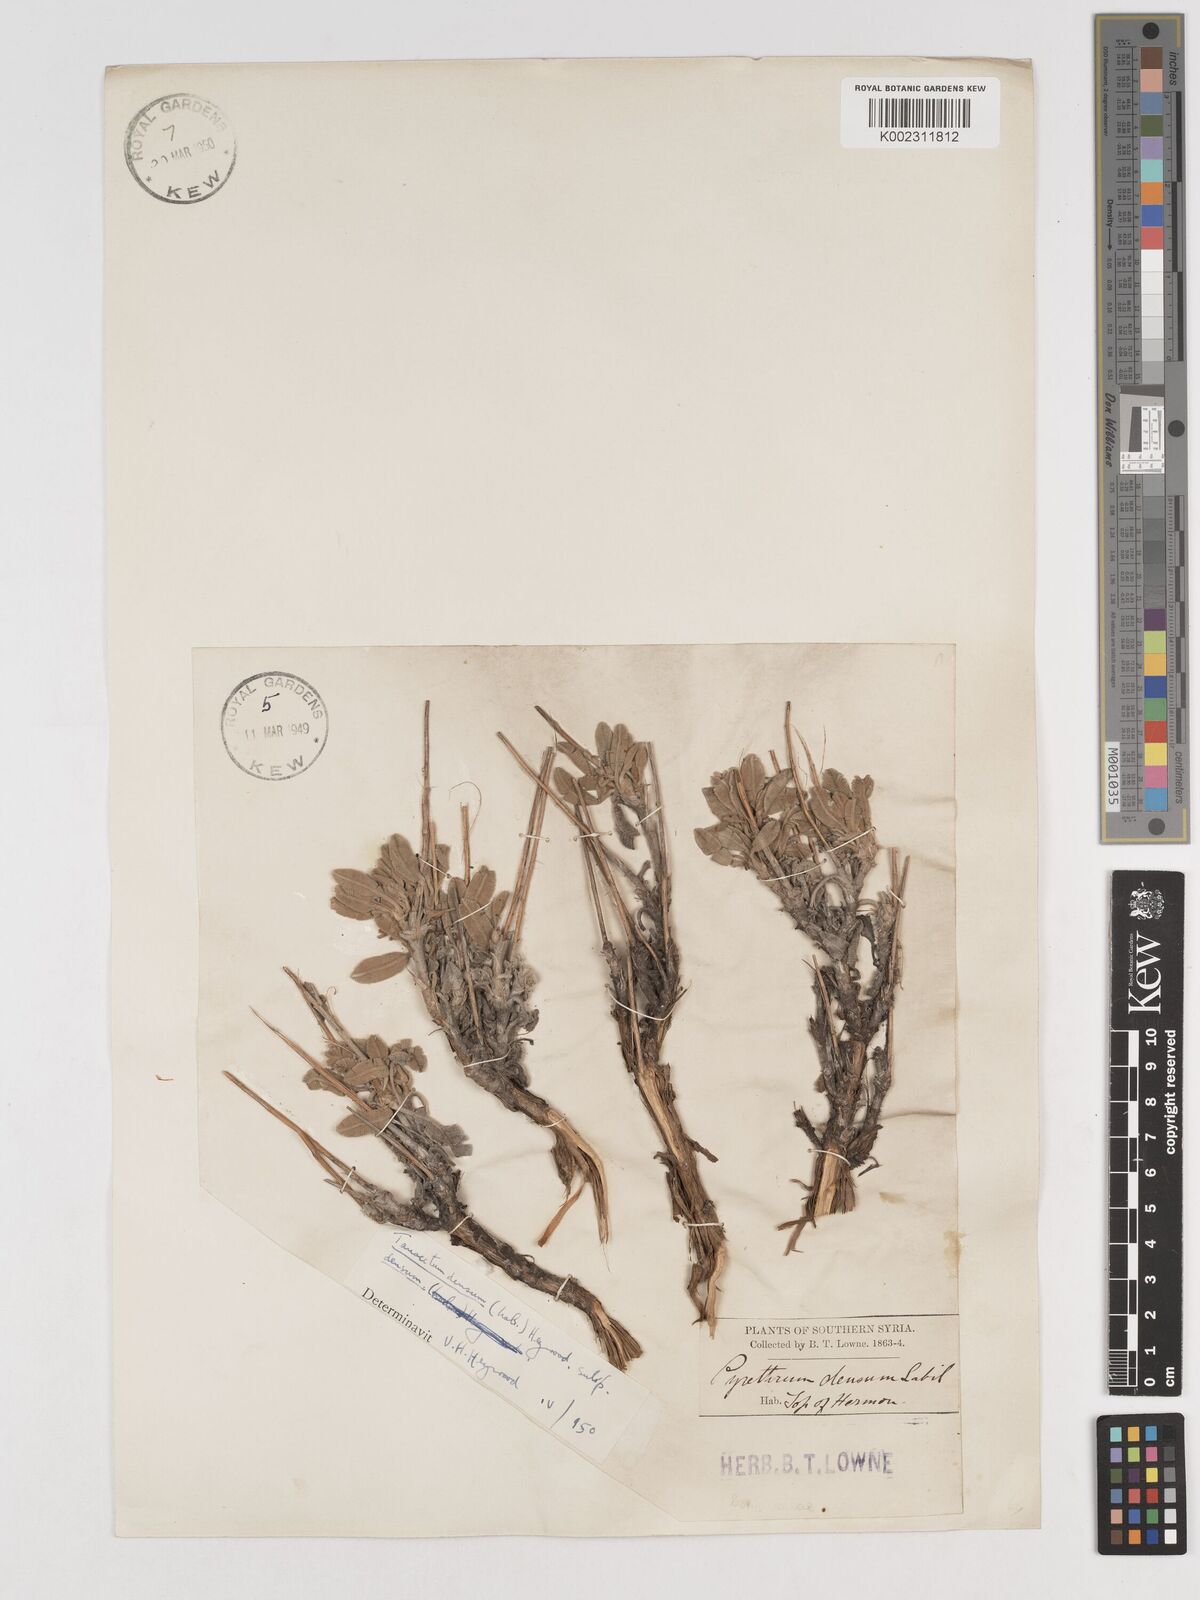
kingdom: Plantae
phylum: Tracheophyta
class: Magnoliopsida
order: Asterales
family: Asteraceae
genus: Tanacetum
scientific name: Tanacetum densum
